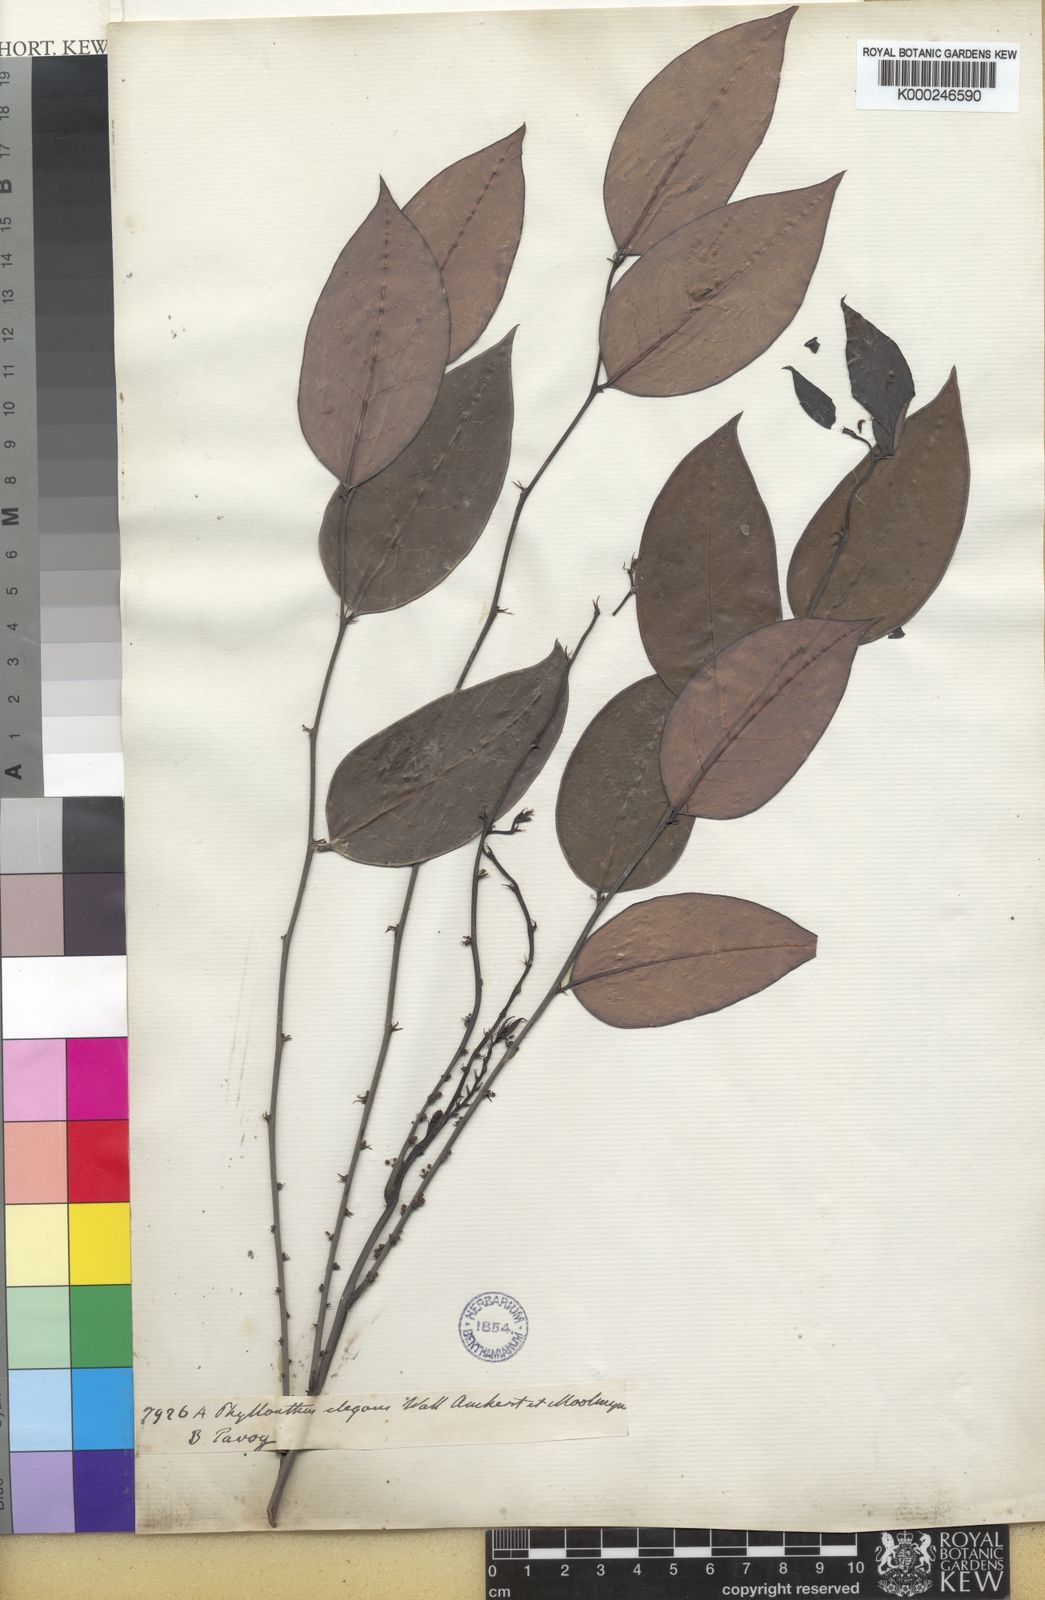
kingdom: Plantae
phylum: Tracheophyta
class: Magnoliopsida
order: Malpighiales
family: Phyllanthaceae
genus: Phyllanthus
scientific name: Phyllanthus
